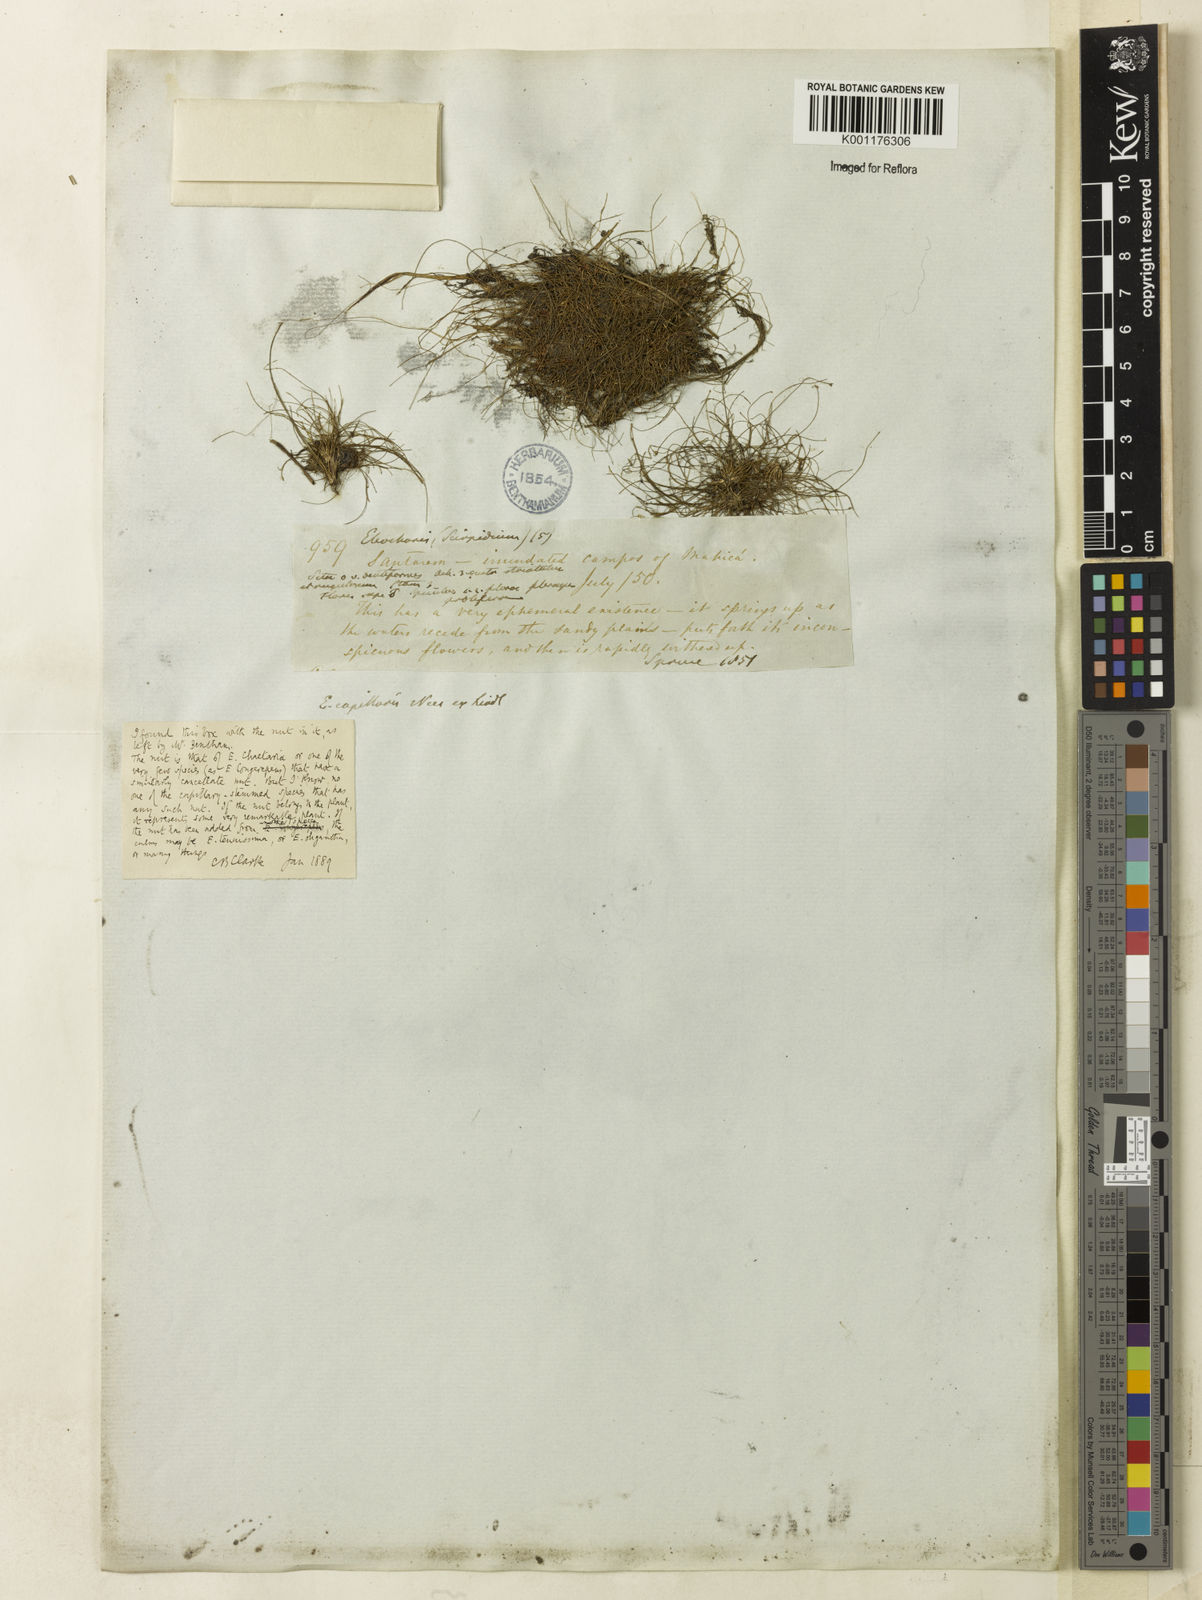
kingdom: Plantae
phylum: Tracheophyta
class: Liliopsida
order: Poales
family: Cyperaceae
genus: Eleocharis
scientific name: Eleocharis
